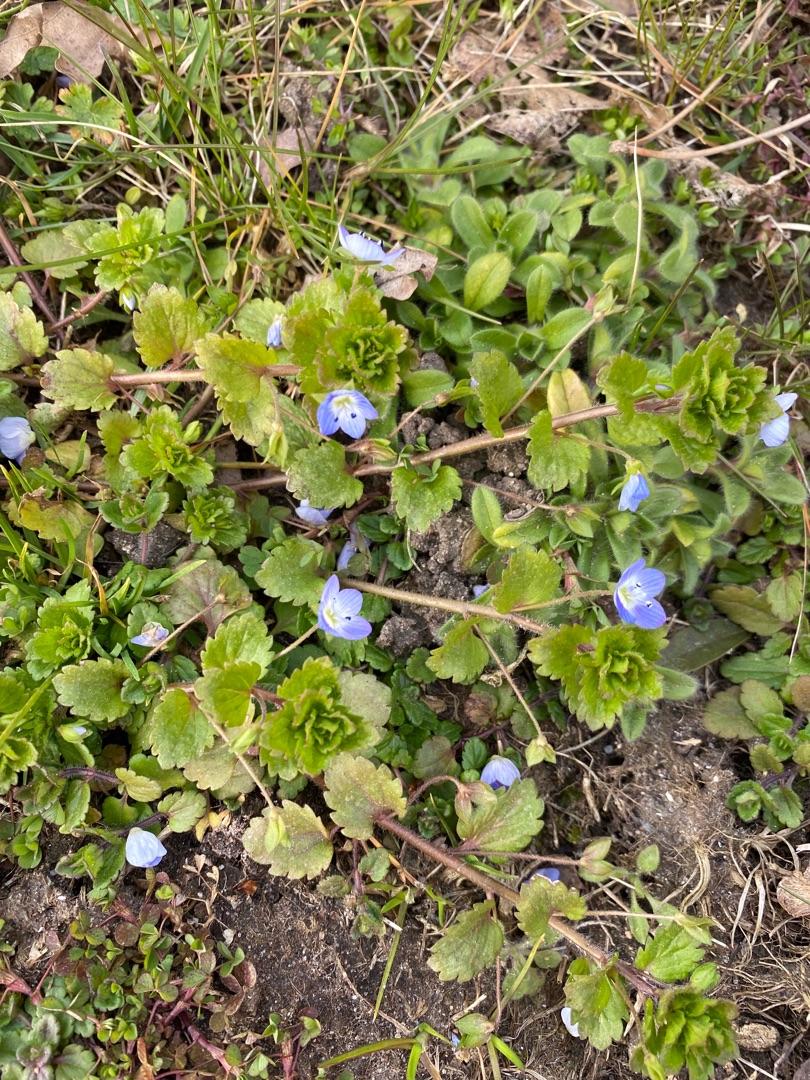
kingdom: Plantae
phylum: Tracheophyta
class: Magnoliopsida
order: Lamiales
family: Plantaginaceae
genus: Veronica
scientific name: Veronica persica
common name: Storkronet ærenpris
